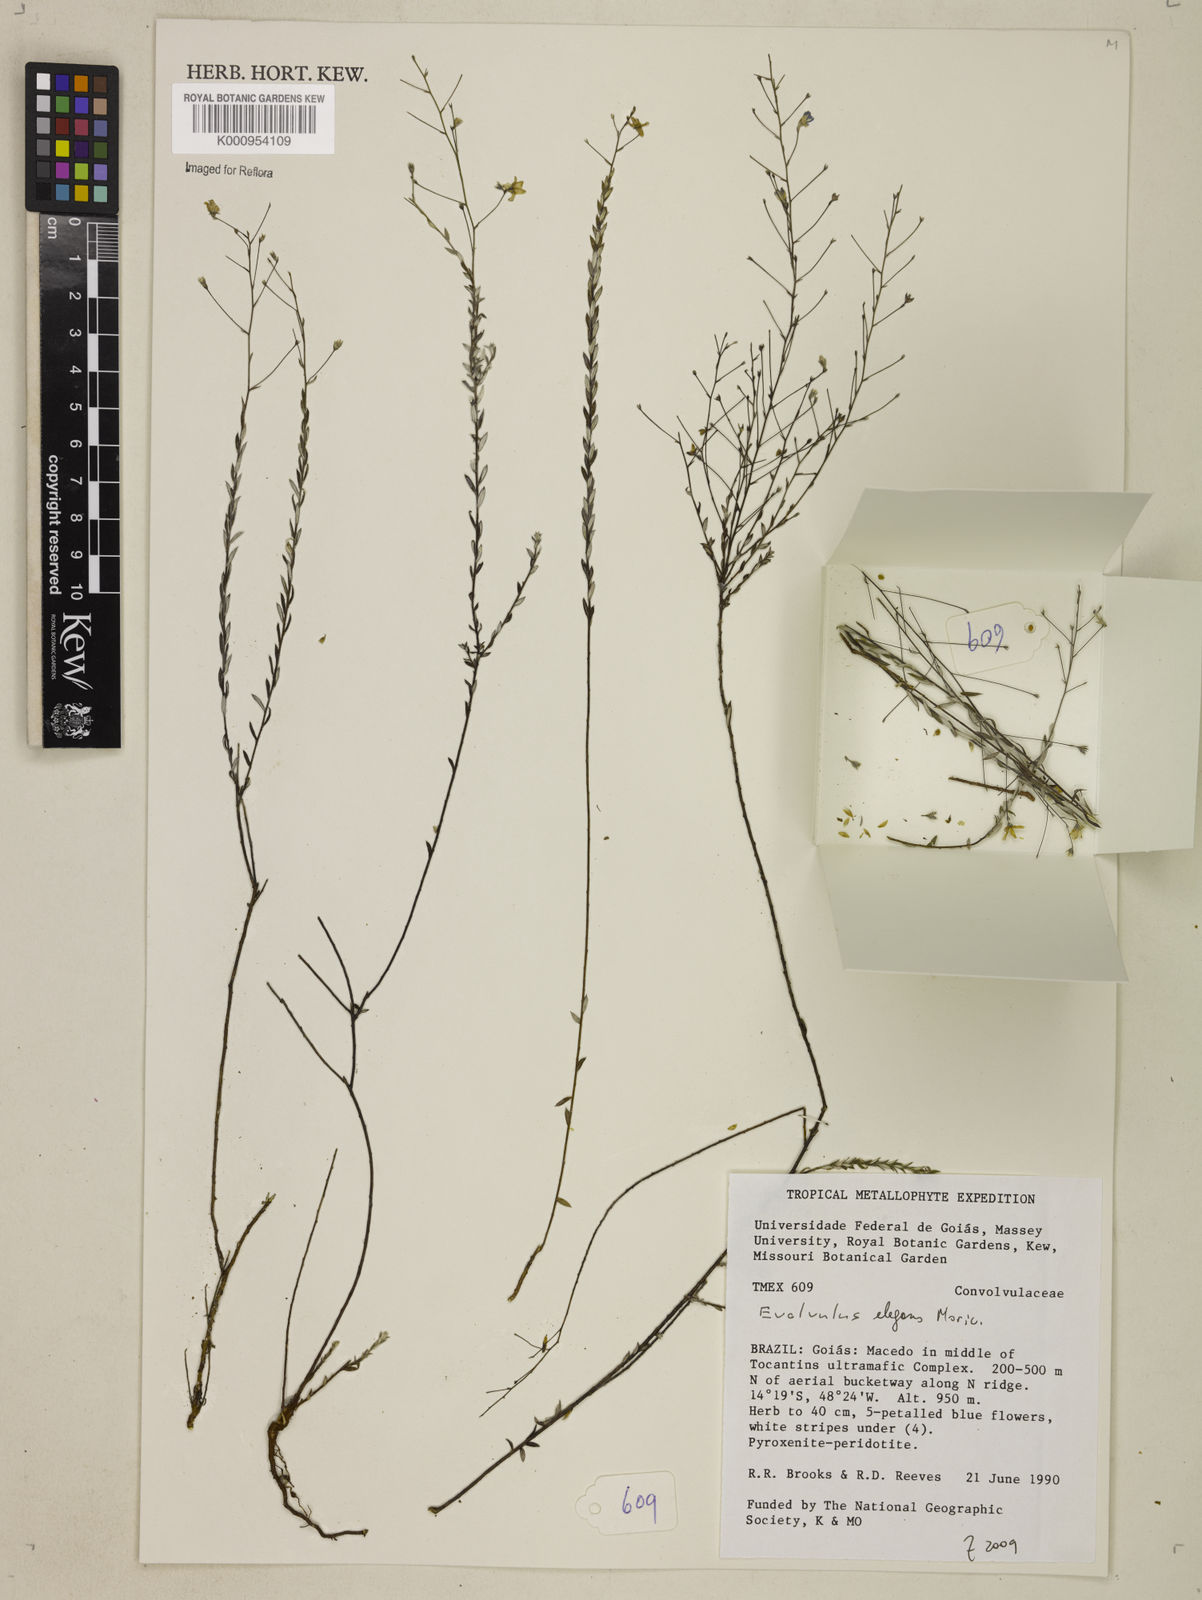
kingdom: Plantae
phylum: Tracheophyta
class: Magnoliopsida
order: Solanales
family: Convolvulaceae
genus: Evolvulus
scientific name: Evolvulus elegans
